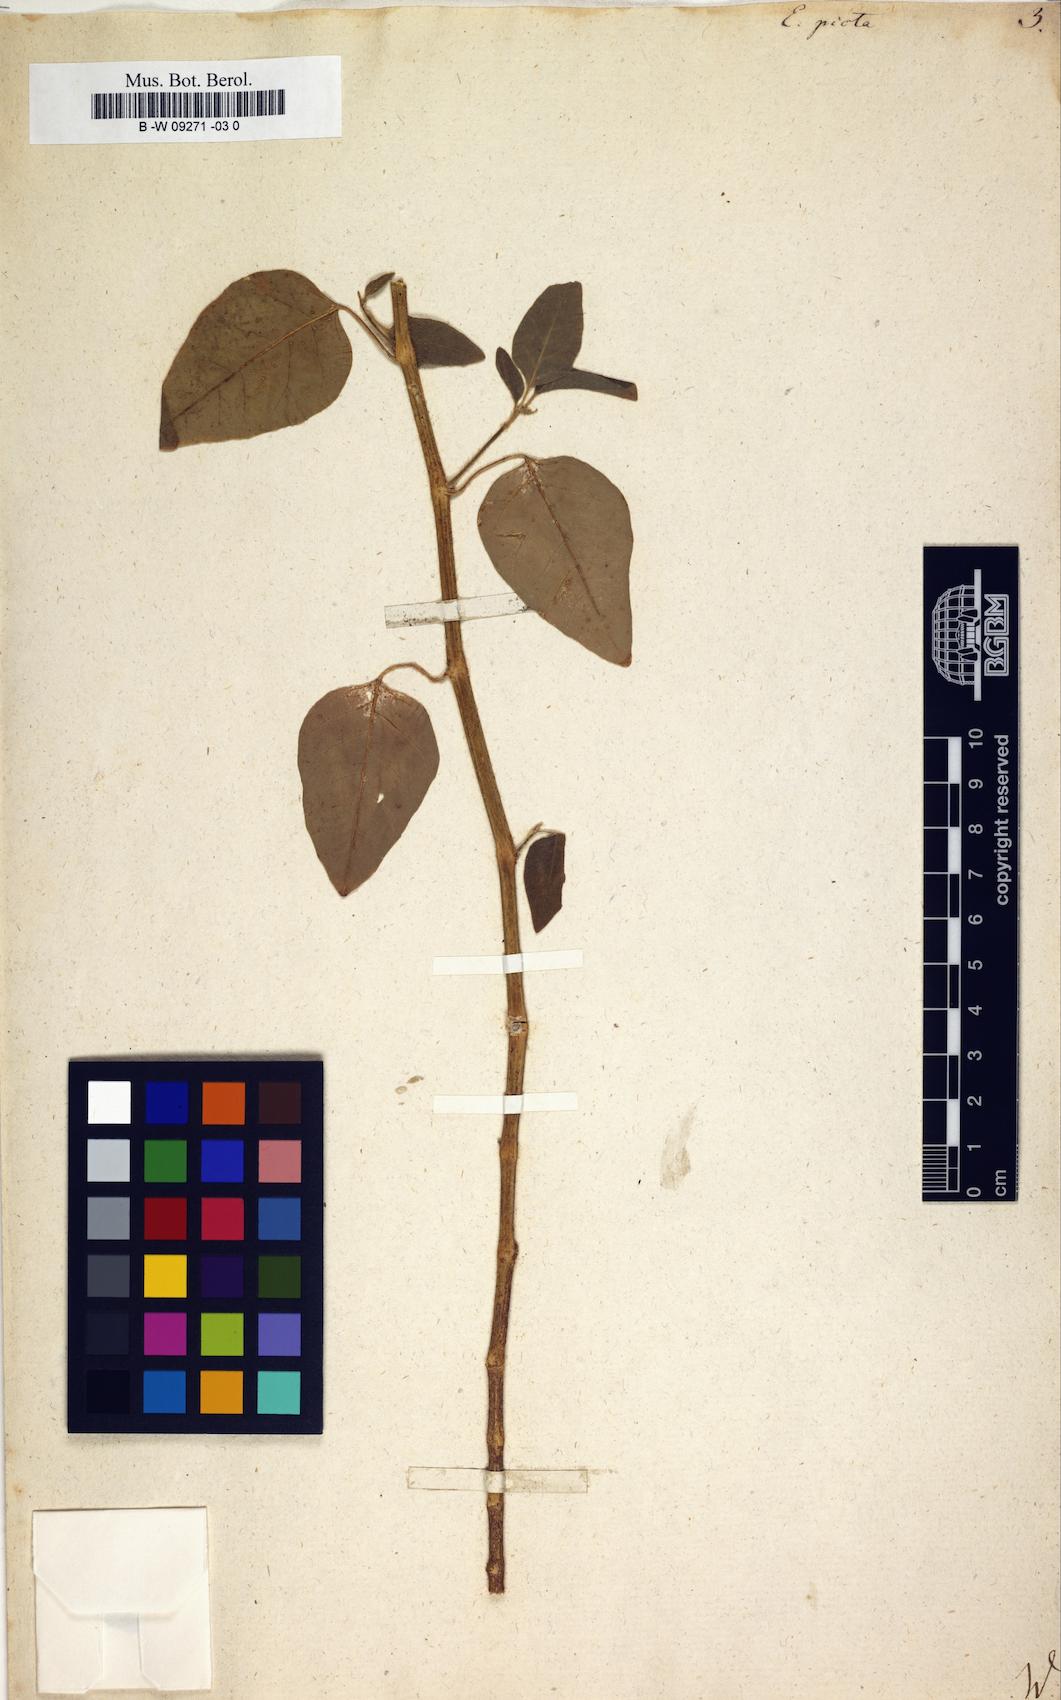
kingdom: Plantae
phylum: Tracheophyta
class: Magnoliopsida
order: Malpighiales
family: Euphorbiaceae
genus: Euphorbia
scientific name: Euphorbia graminea
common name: Grassleaf spurge
